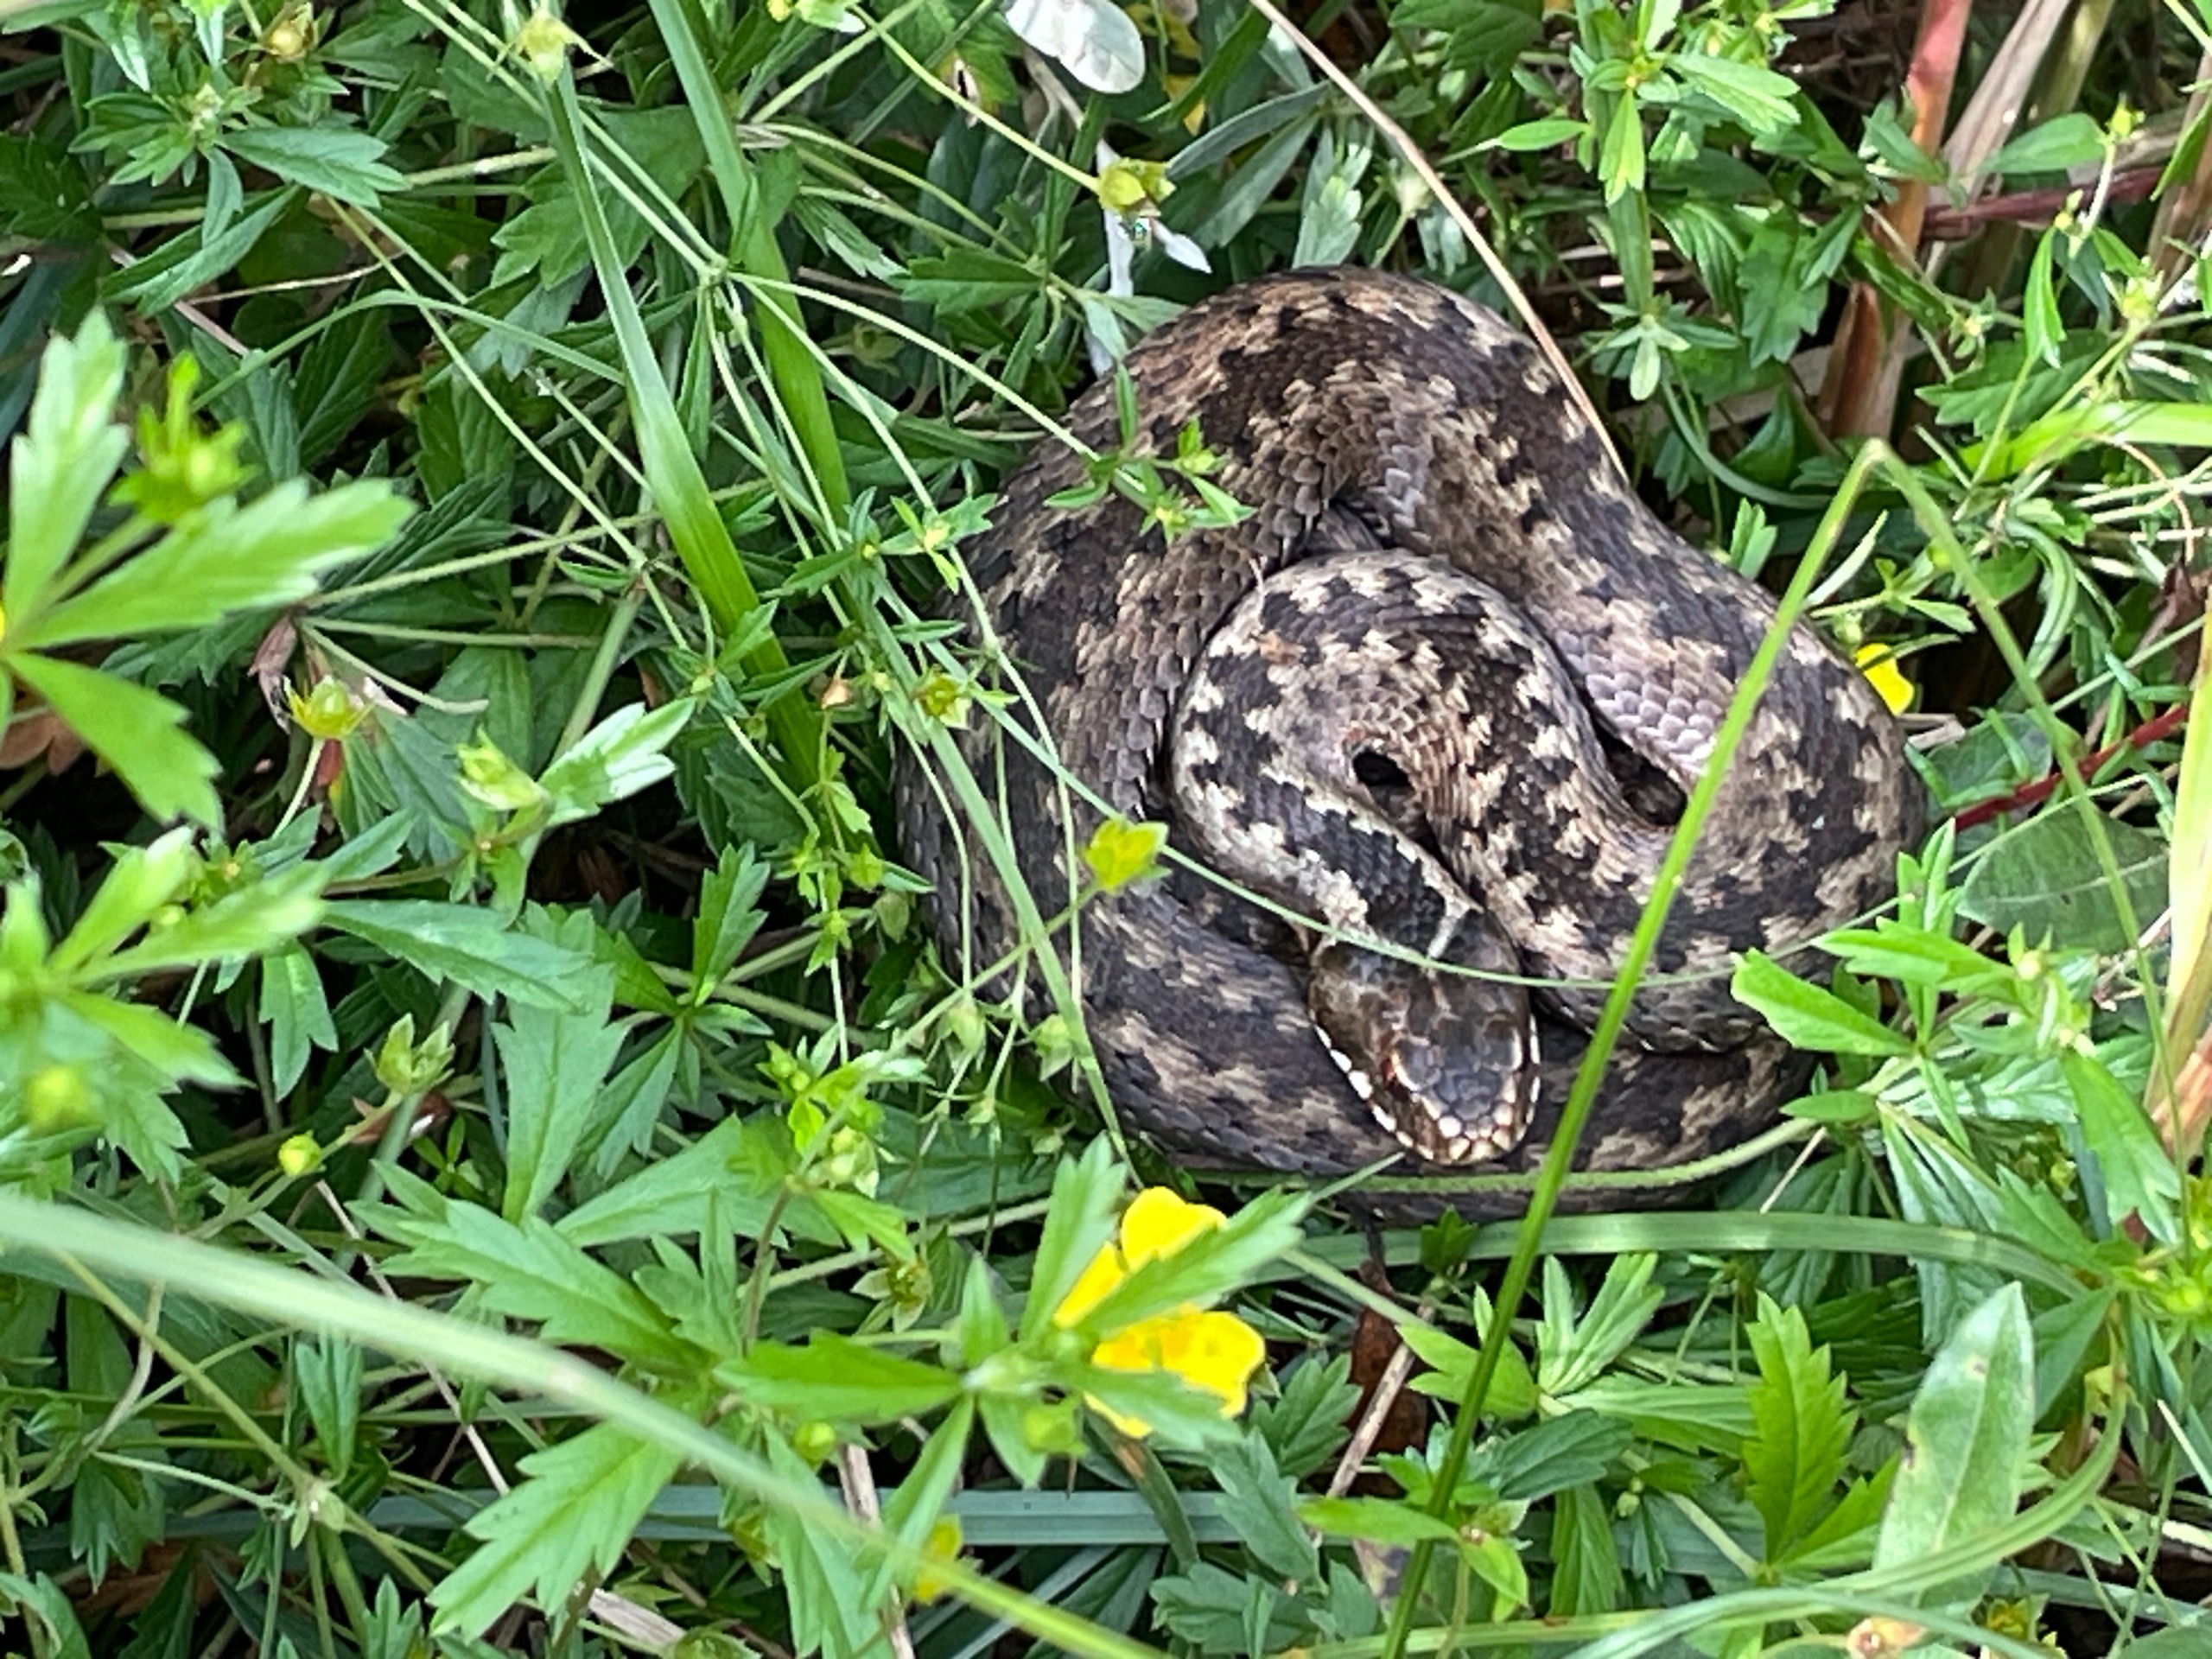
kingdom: Animalia
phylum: Chordata
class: Squamata
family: Viperidae
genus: Vipera
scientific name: Vipera berus
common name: Hugorm
